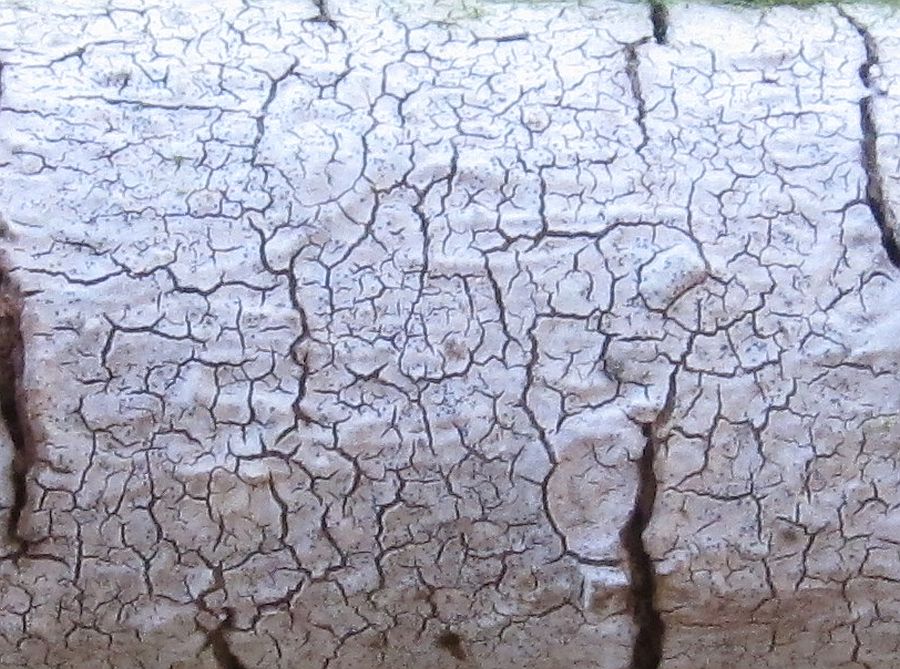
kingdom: Fungi
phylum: Ascomycota
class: Sordariomycetes
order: Hypocreales
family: Niessliaceae
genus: Trichosphaerella
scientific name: Trichosphaerella decipiens
